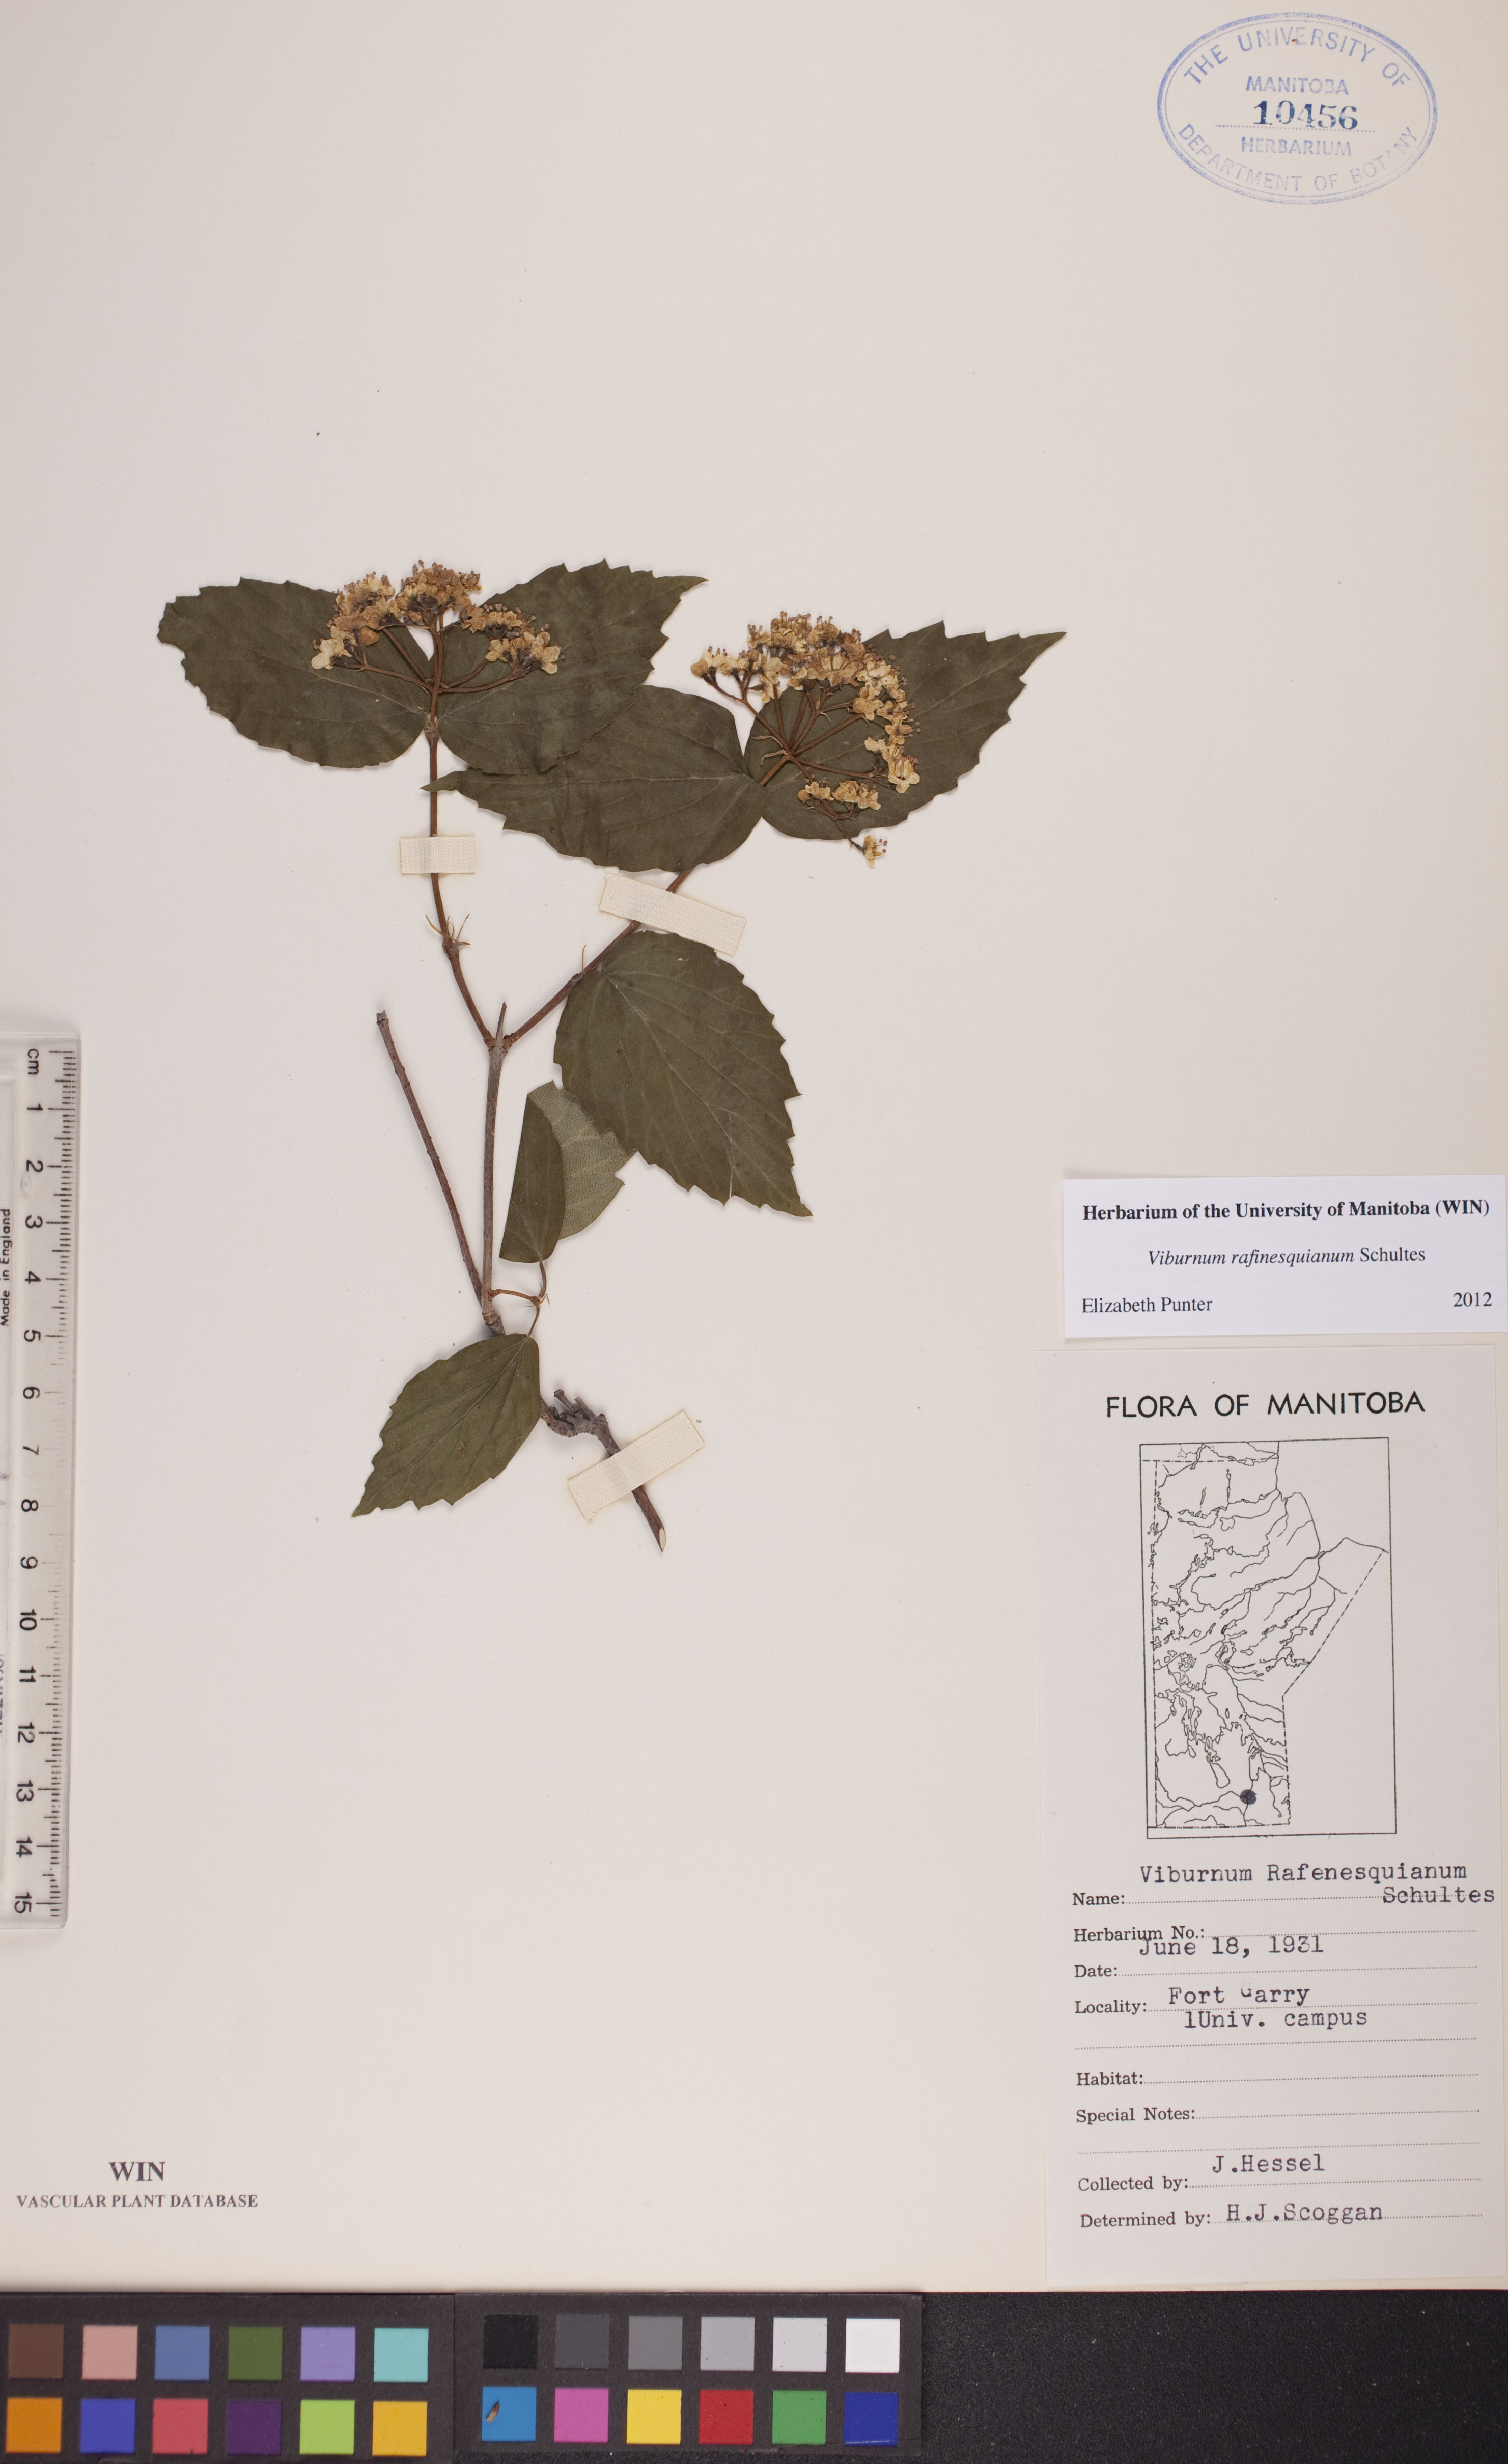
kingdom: Plantae
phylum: Tracheophyta
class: Magnoliopsida
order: Dipsacales
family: Viburnaceae
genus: Viburnum
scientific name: Viburnum rafinesquianum
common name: Downy arrow-wood
